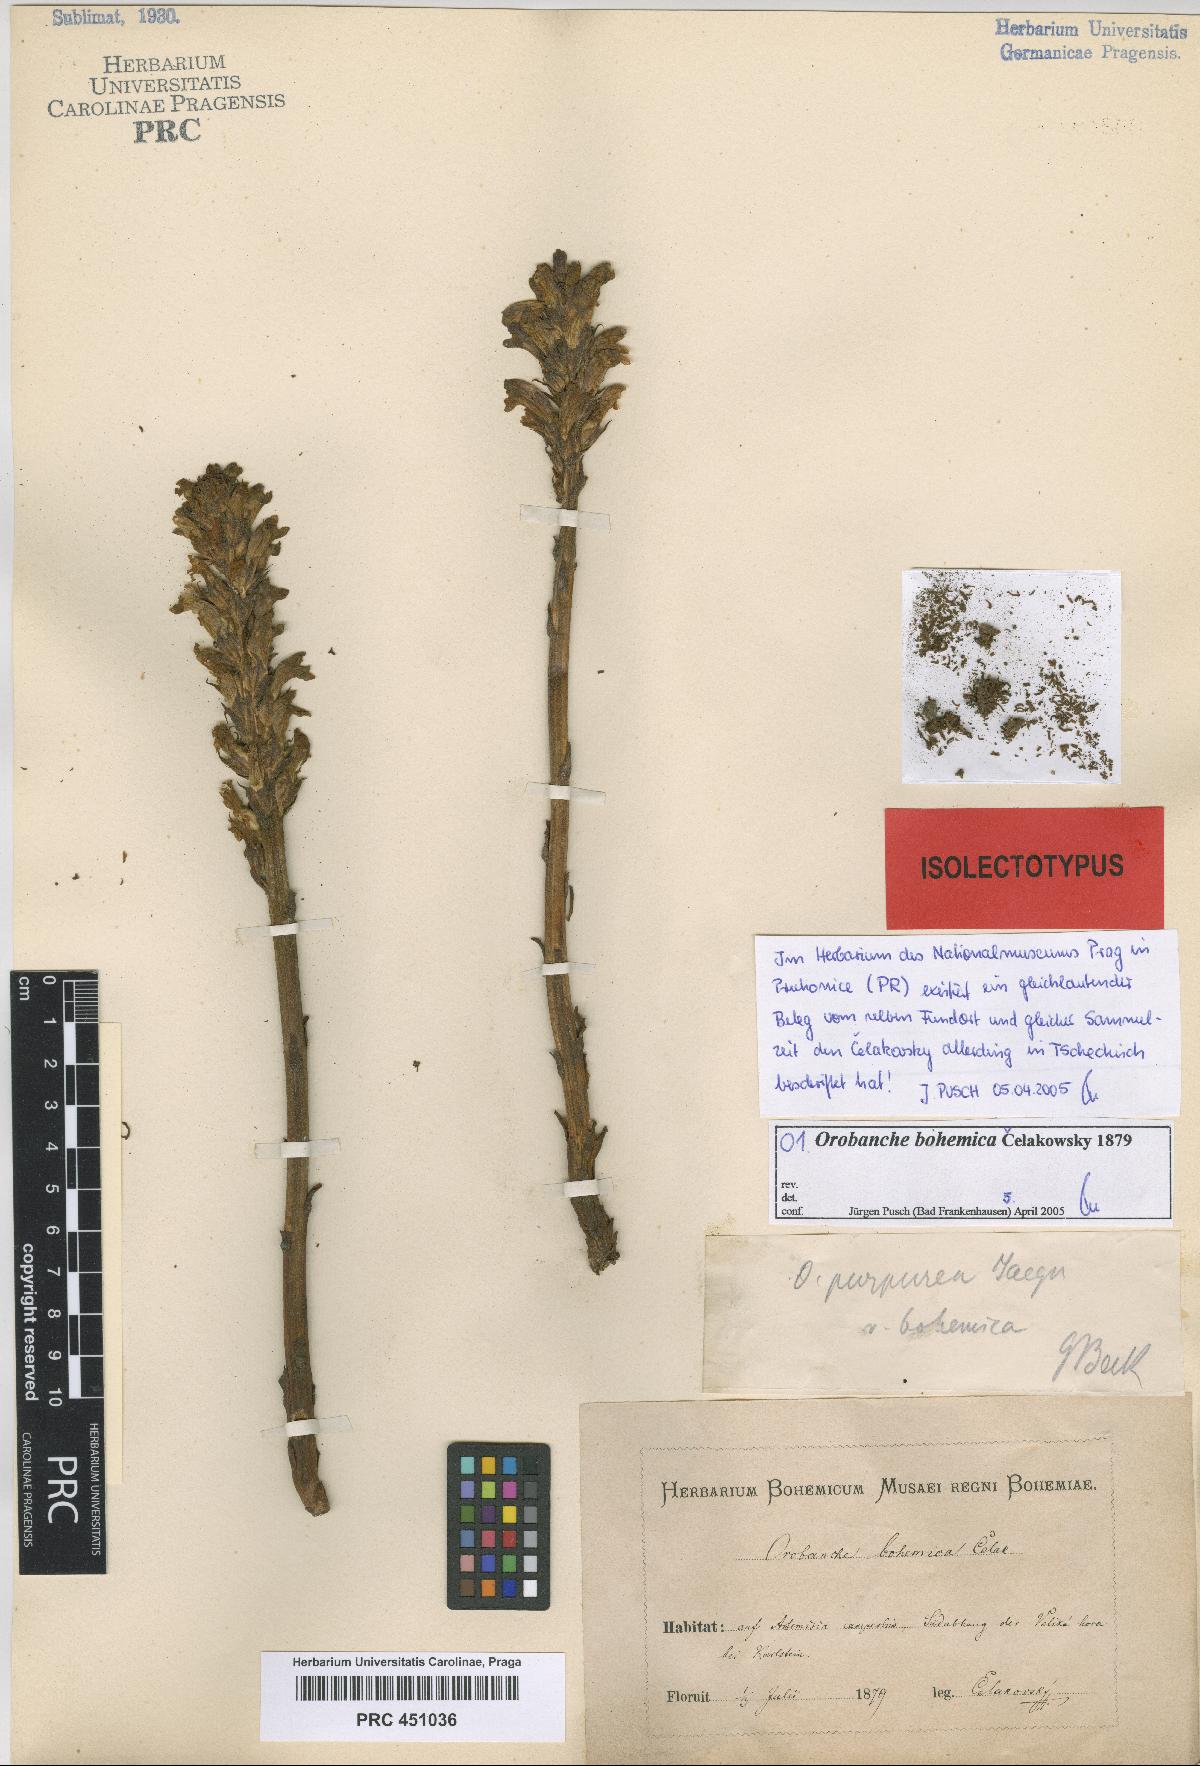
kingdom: Plantae
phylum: Tracheophyta
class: Magnoliopsida
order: Lamiales
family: Orobanchaceae
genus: Phelipanche
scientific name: Phelipanche bohemica
